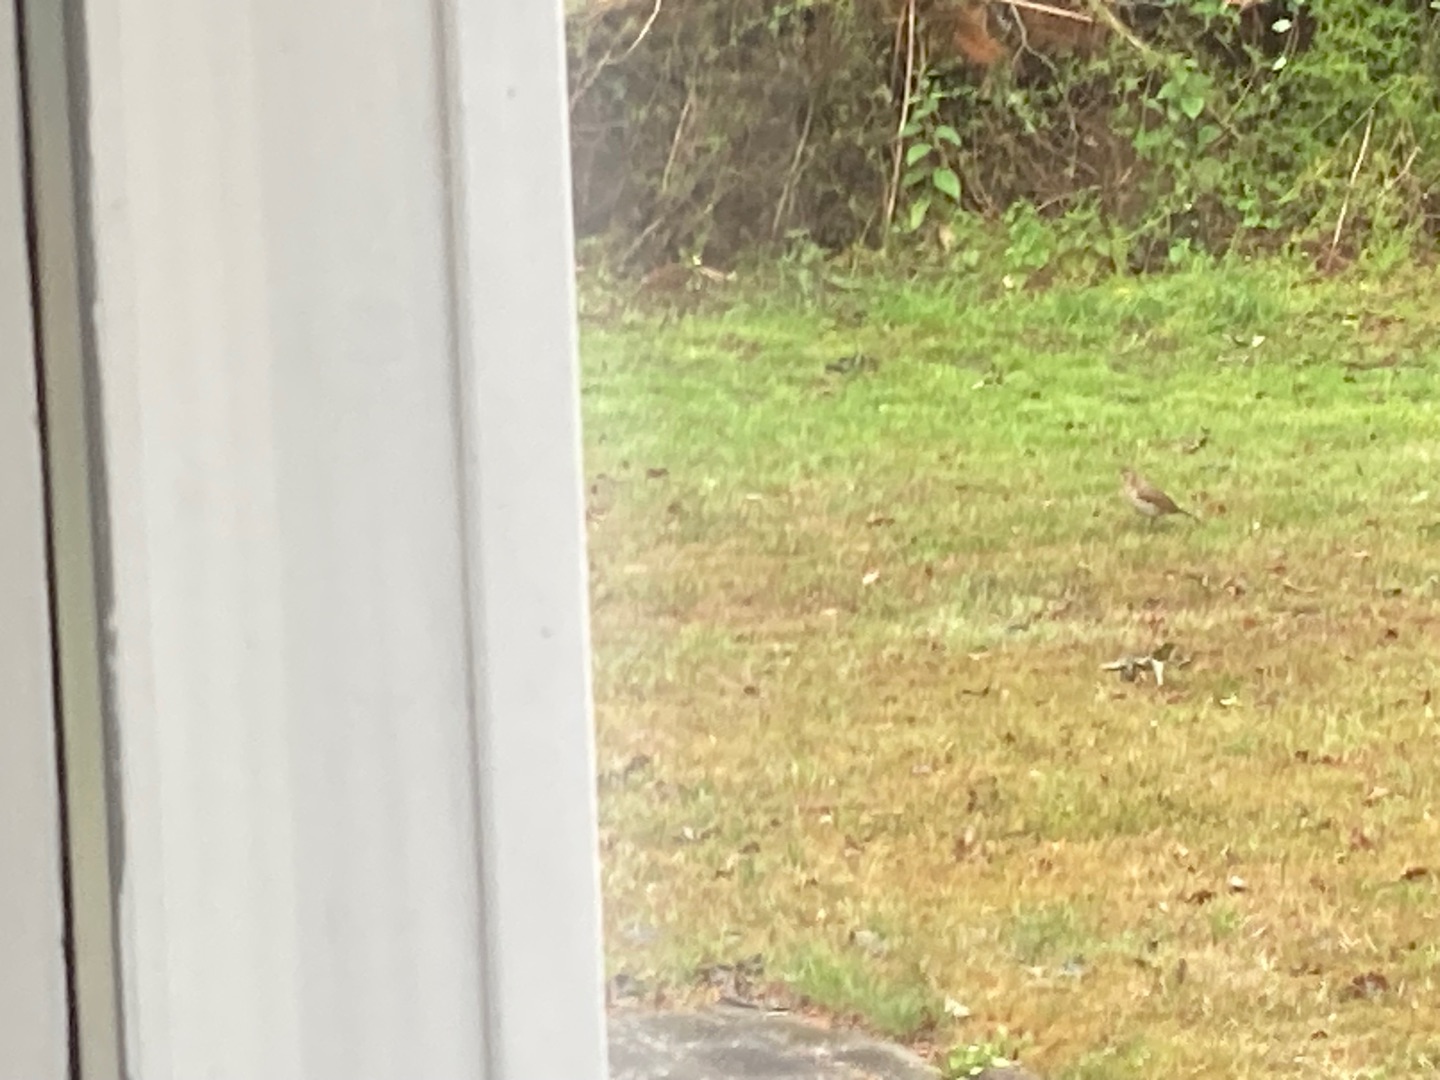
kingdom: Animalia
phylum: Chordata
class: Aves
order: Passeriformes
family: Turdidae
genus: Turdus
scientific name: Turdus philomelos
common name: Sangdrossel
